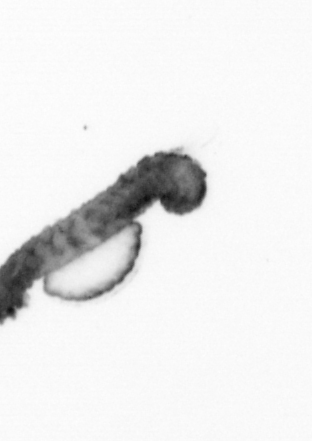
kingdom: Animalia
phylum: Annelida
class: Polychaeta
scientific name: Polychaeta
